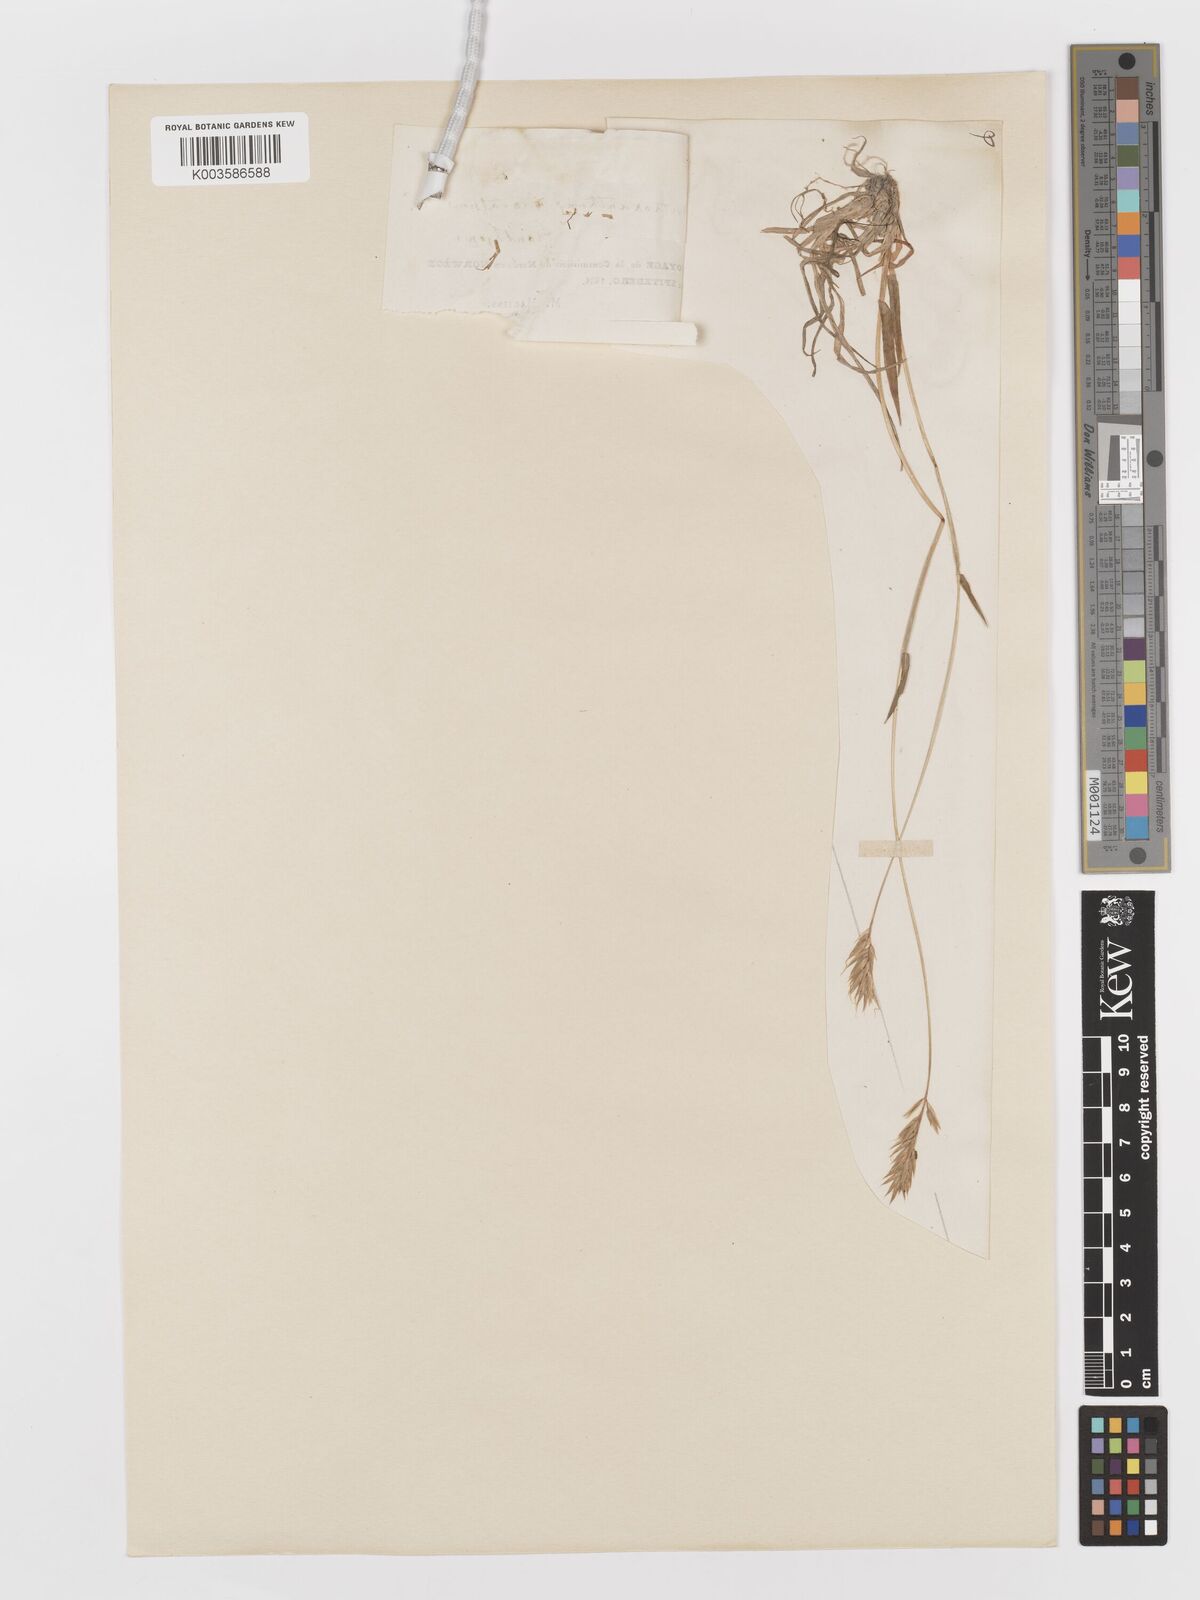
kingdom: Plantae
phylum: Tracheophyta
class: Liliopsida
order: Poales
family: Poaceae
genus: Anthoxanthum
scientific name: Anthoxanthum odoratum
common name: Sweet vernalgrass
